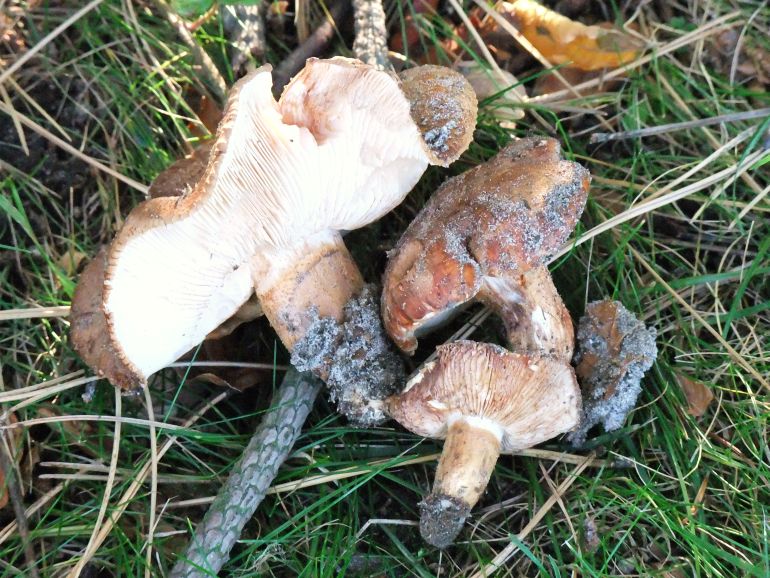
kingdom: Fungi
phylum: Basidiomycota
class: Agaricomycetes
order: Agaricales
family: Tricholomataceae
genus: Tricholoma
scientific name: Tricholoma fracticum
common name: hvidhalset ridderhat
